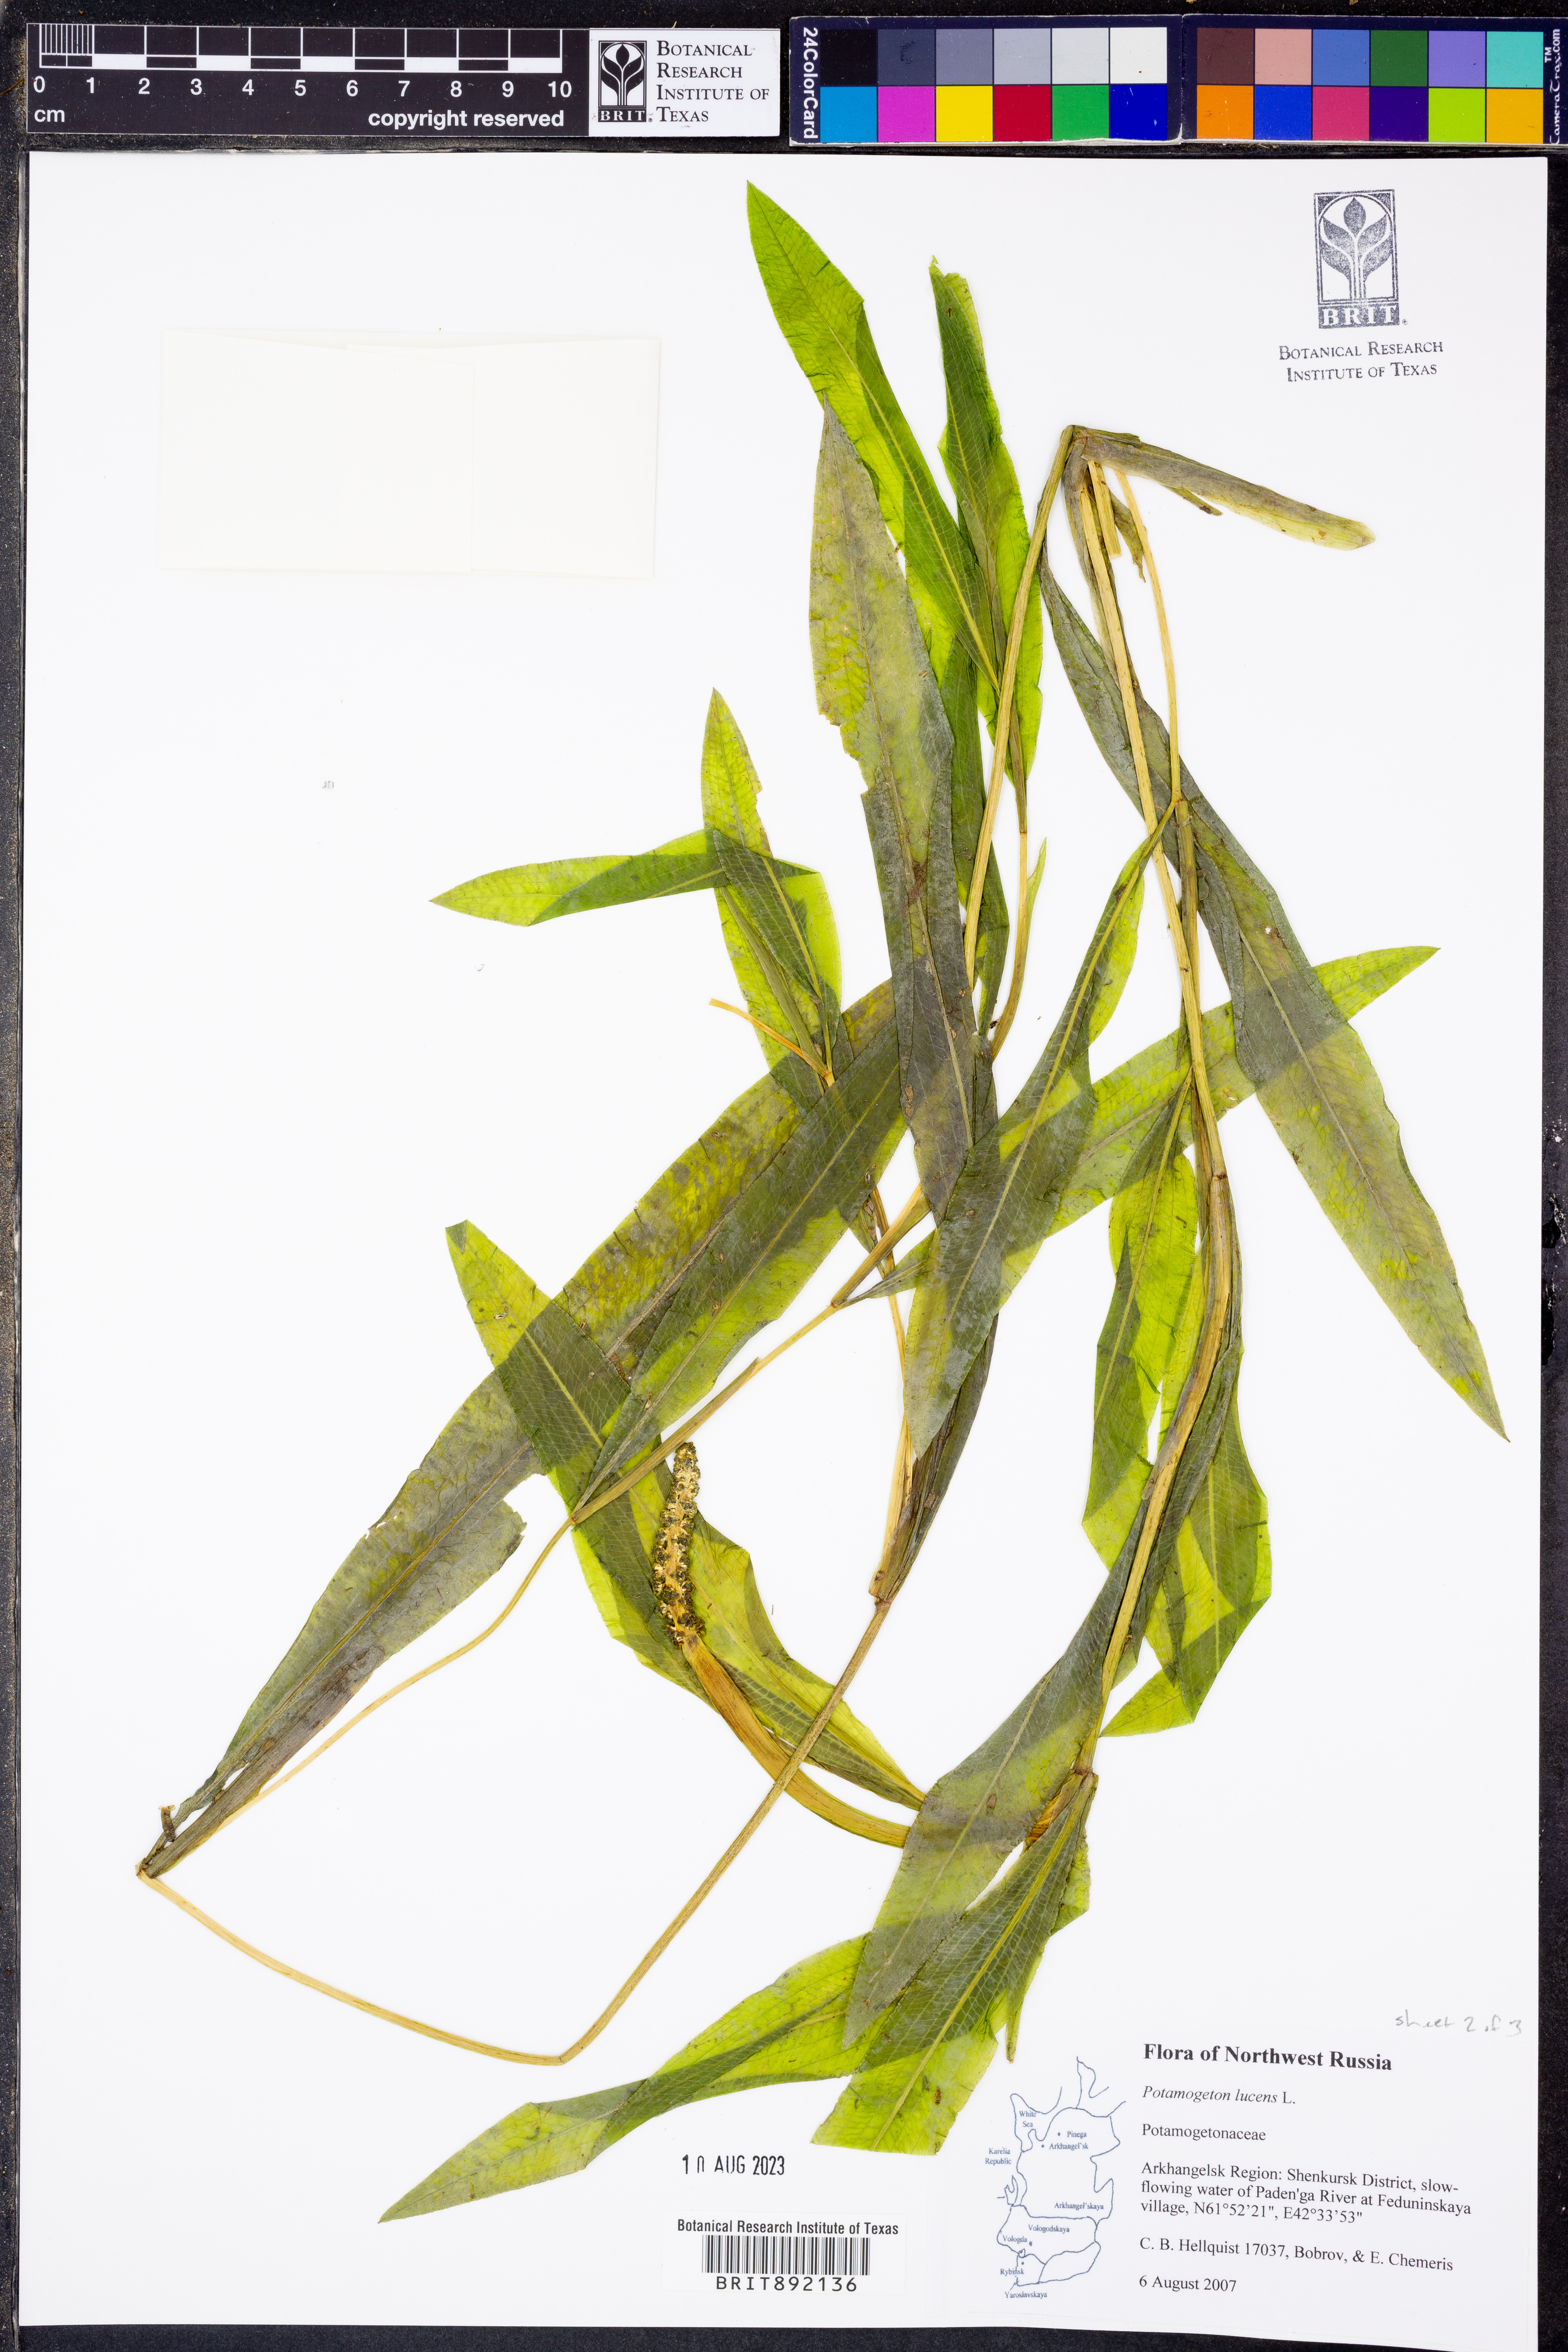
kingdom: Plantae
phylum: Tracheophyta
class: Liliopsida
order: Alismatales
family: Potamogetonaceae
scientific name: Potamogetonaceae
